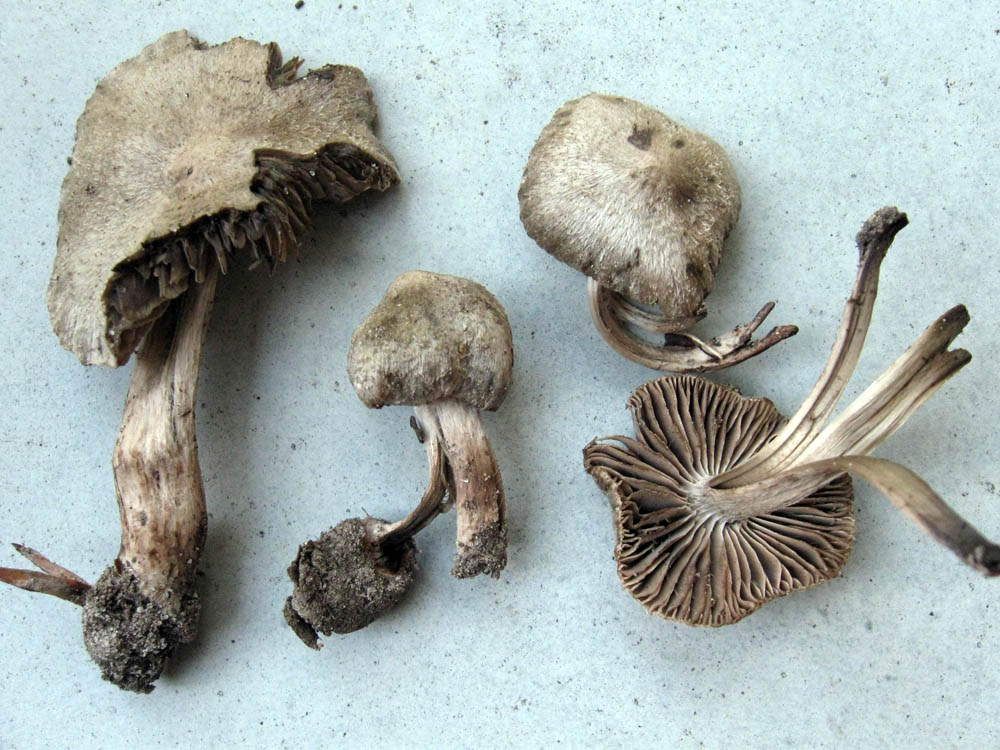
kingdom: Fungi
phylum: Basidiomycota
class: Agaricomycetes
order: Agaricales
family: Entolomataceae
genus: Entoloma
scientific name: Entoloma araneosum
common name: spindelvævs-rødblad
